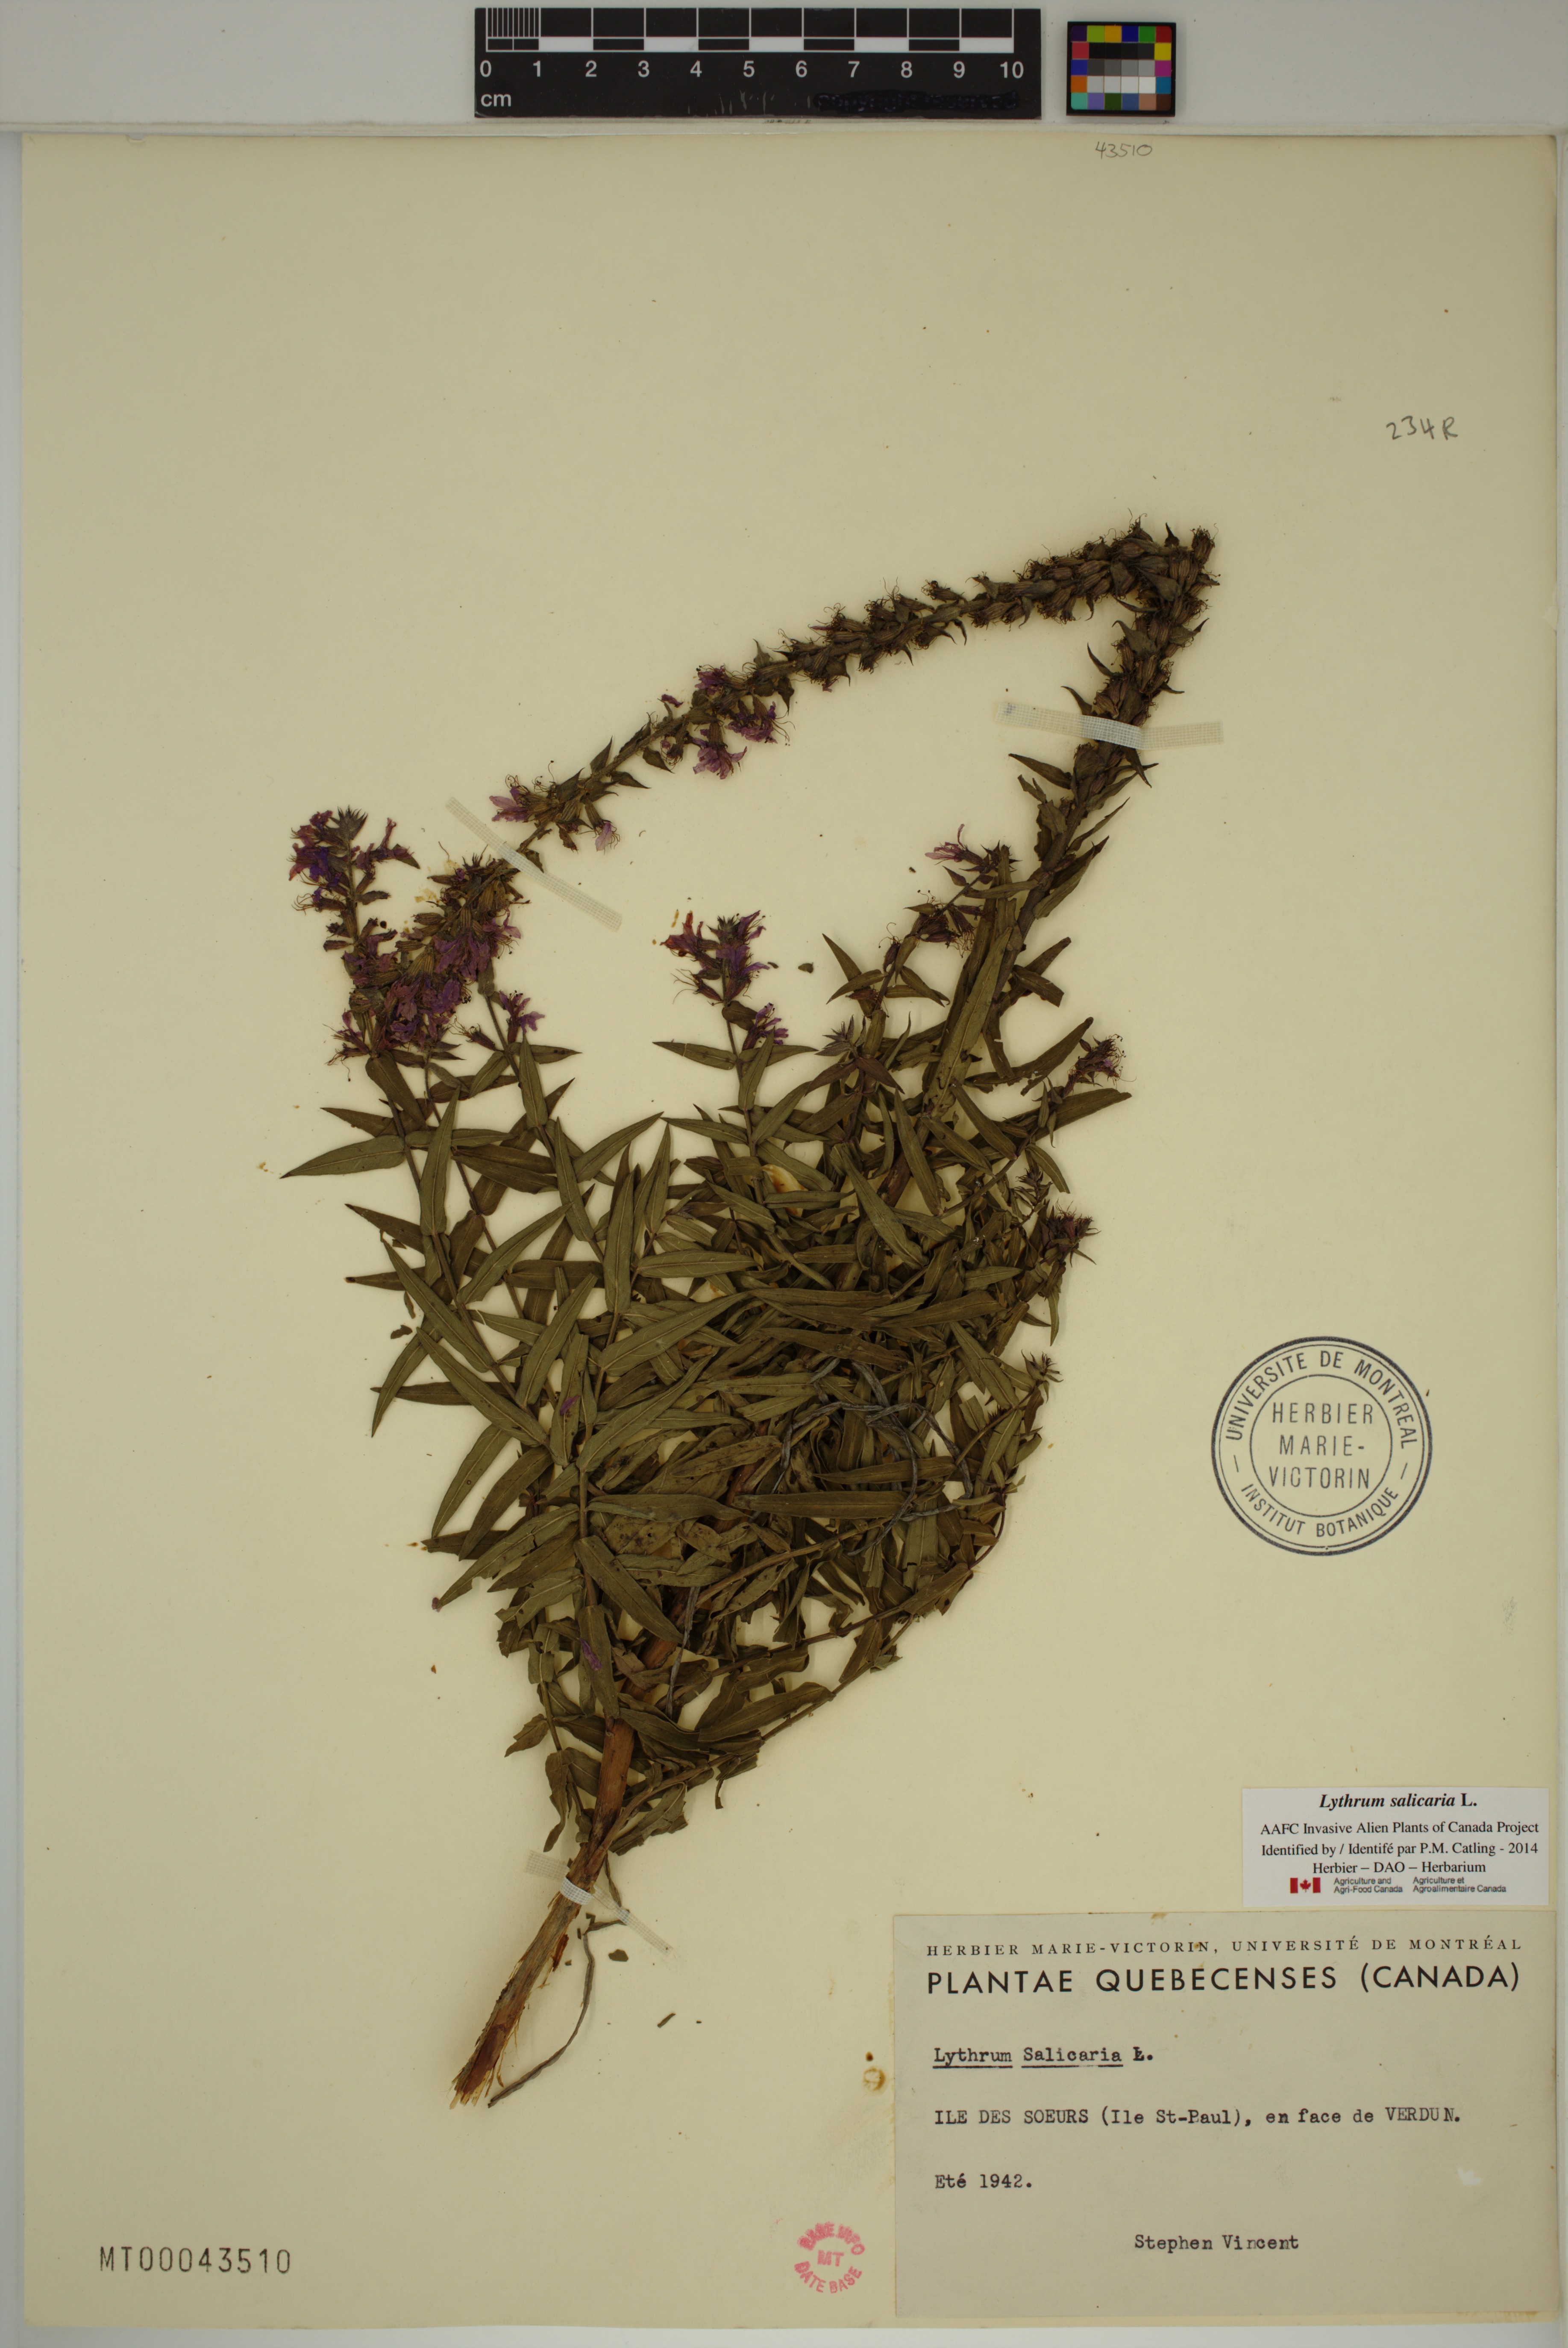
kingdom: Plantae
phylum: Tracheophyta
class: Magnoliopsida
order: Myrtales
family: Lythraceae
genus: Lythrum
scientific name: Lythrum salicaria
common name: Purple loosestrife
